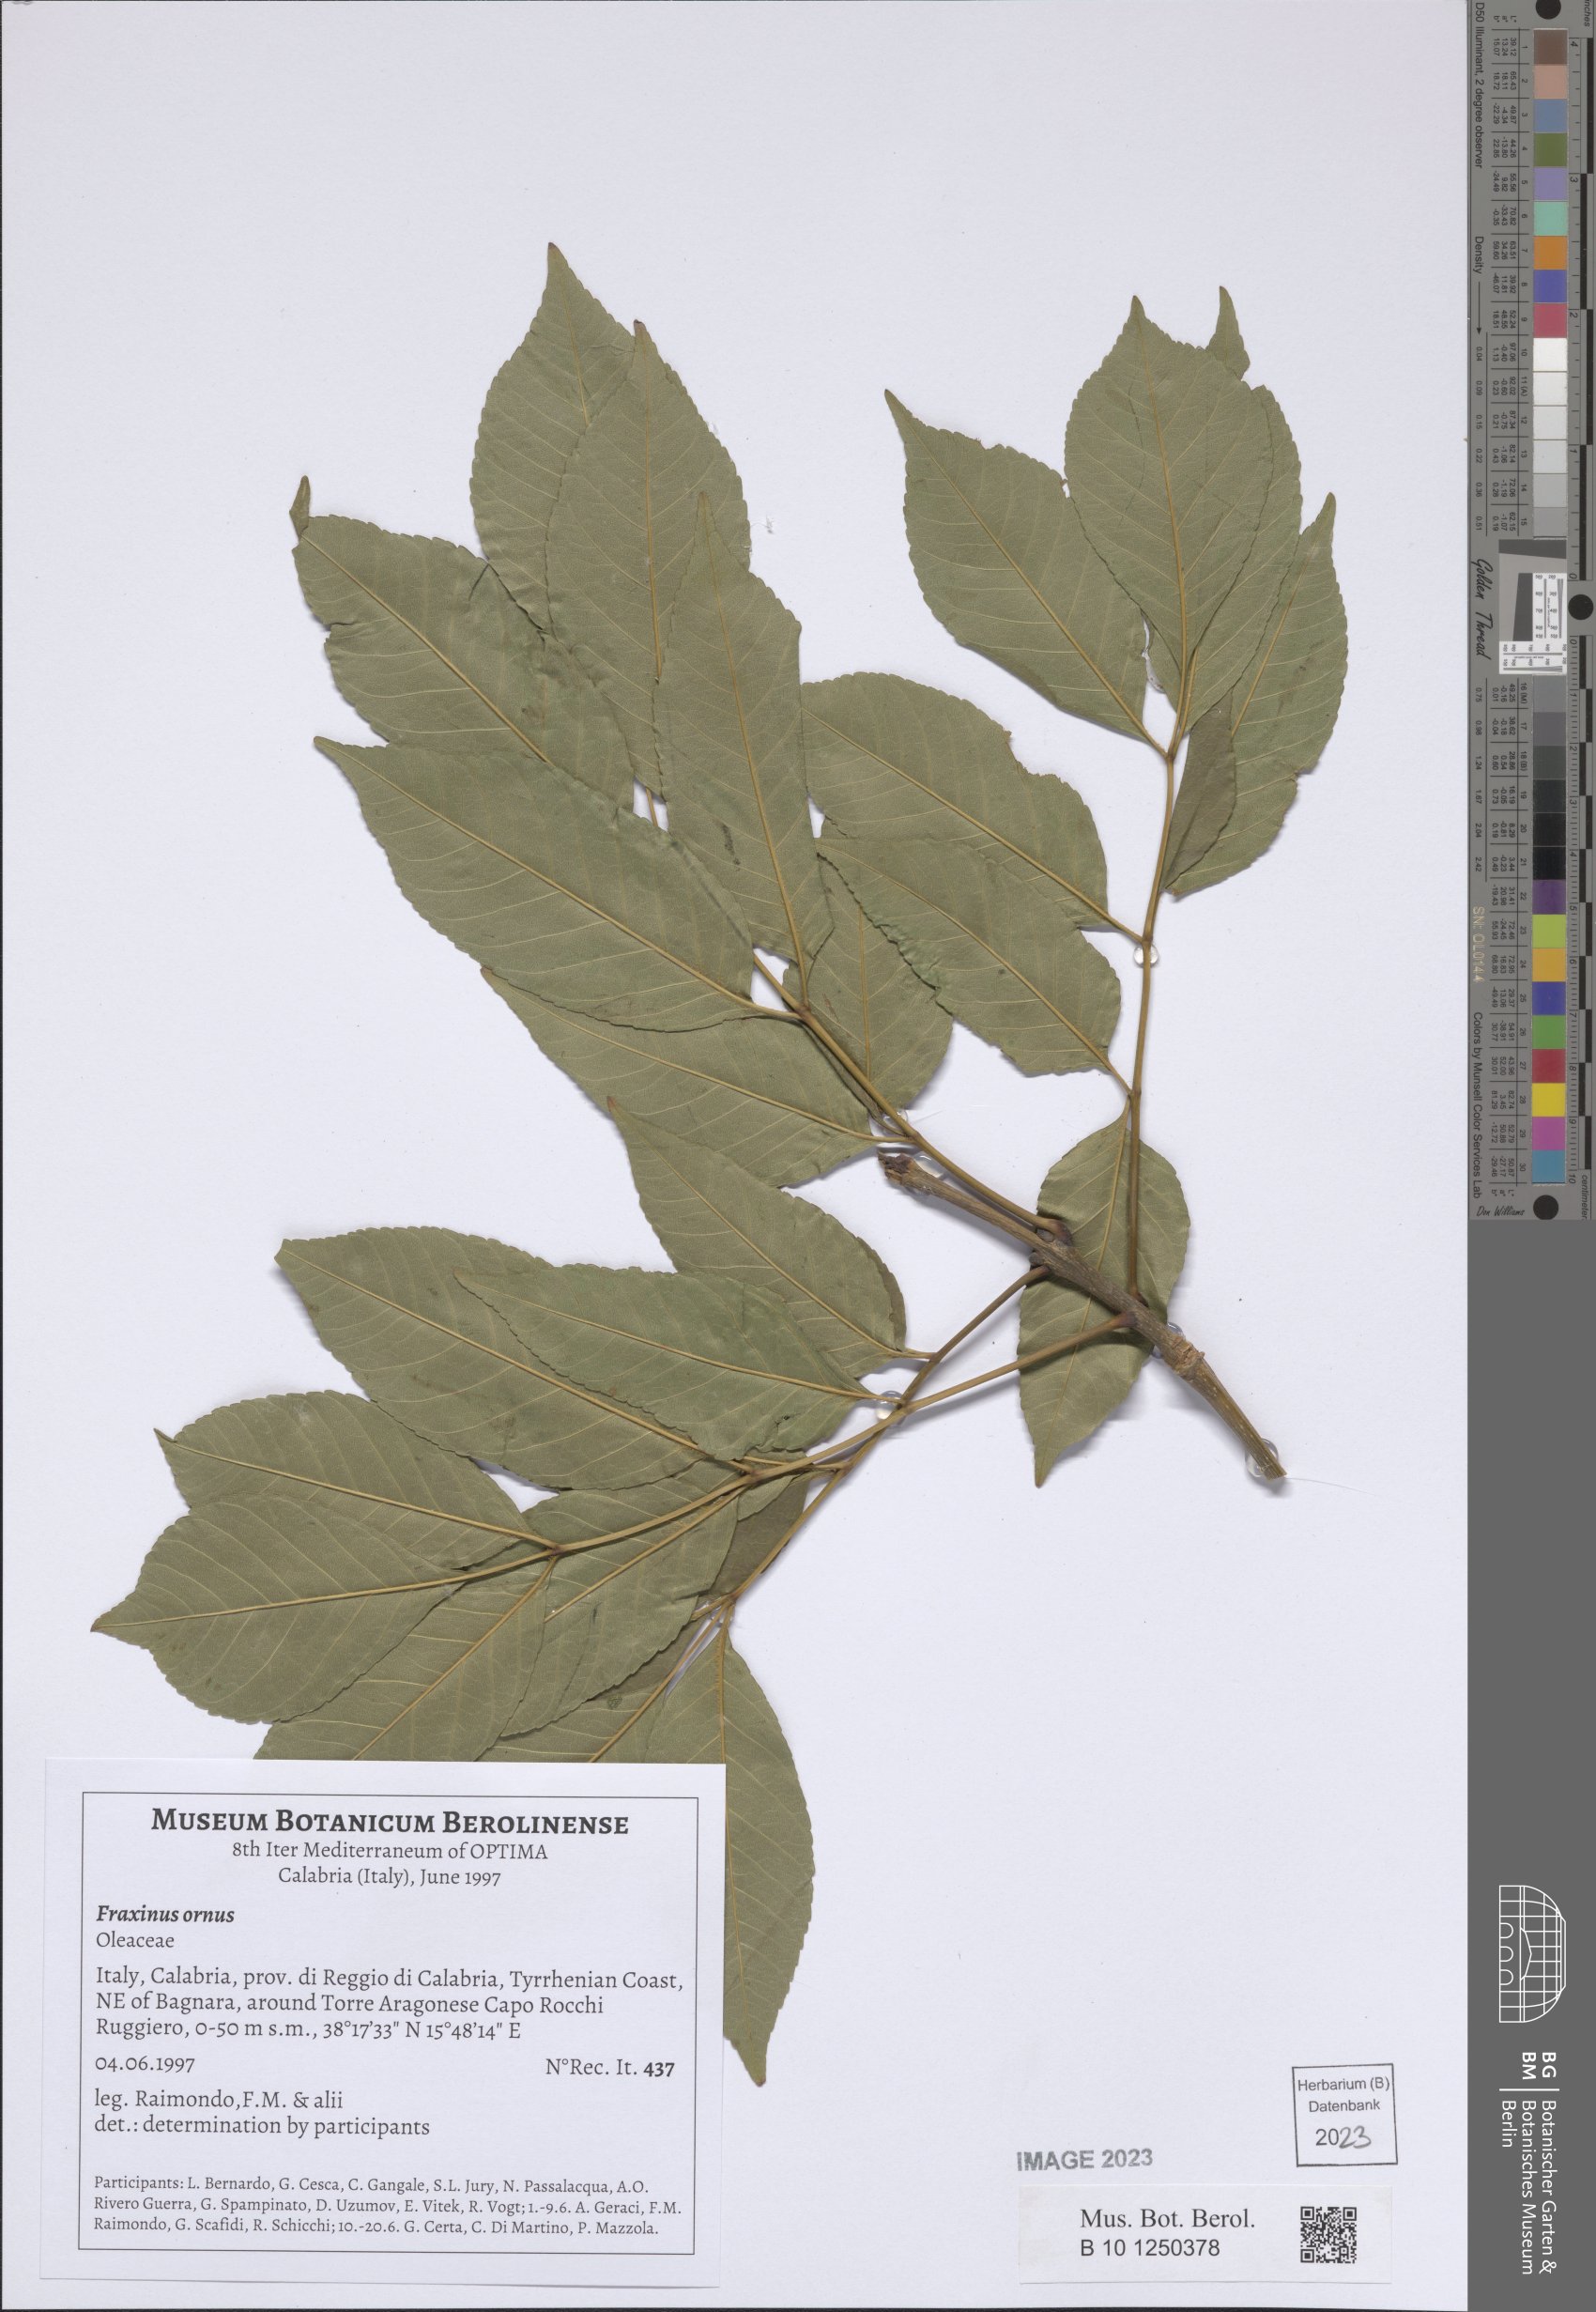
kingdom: Plantae
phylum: Tracheophyta
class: Magnoliopsida
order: Lamiales
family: Oleaceae
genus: Fraxinus
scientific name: Fraxinus ornus
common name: Manna ash
